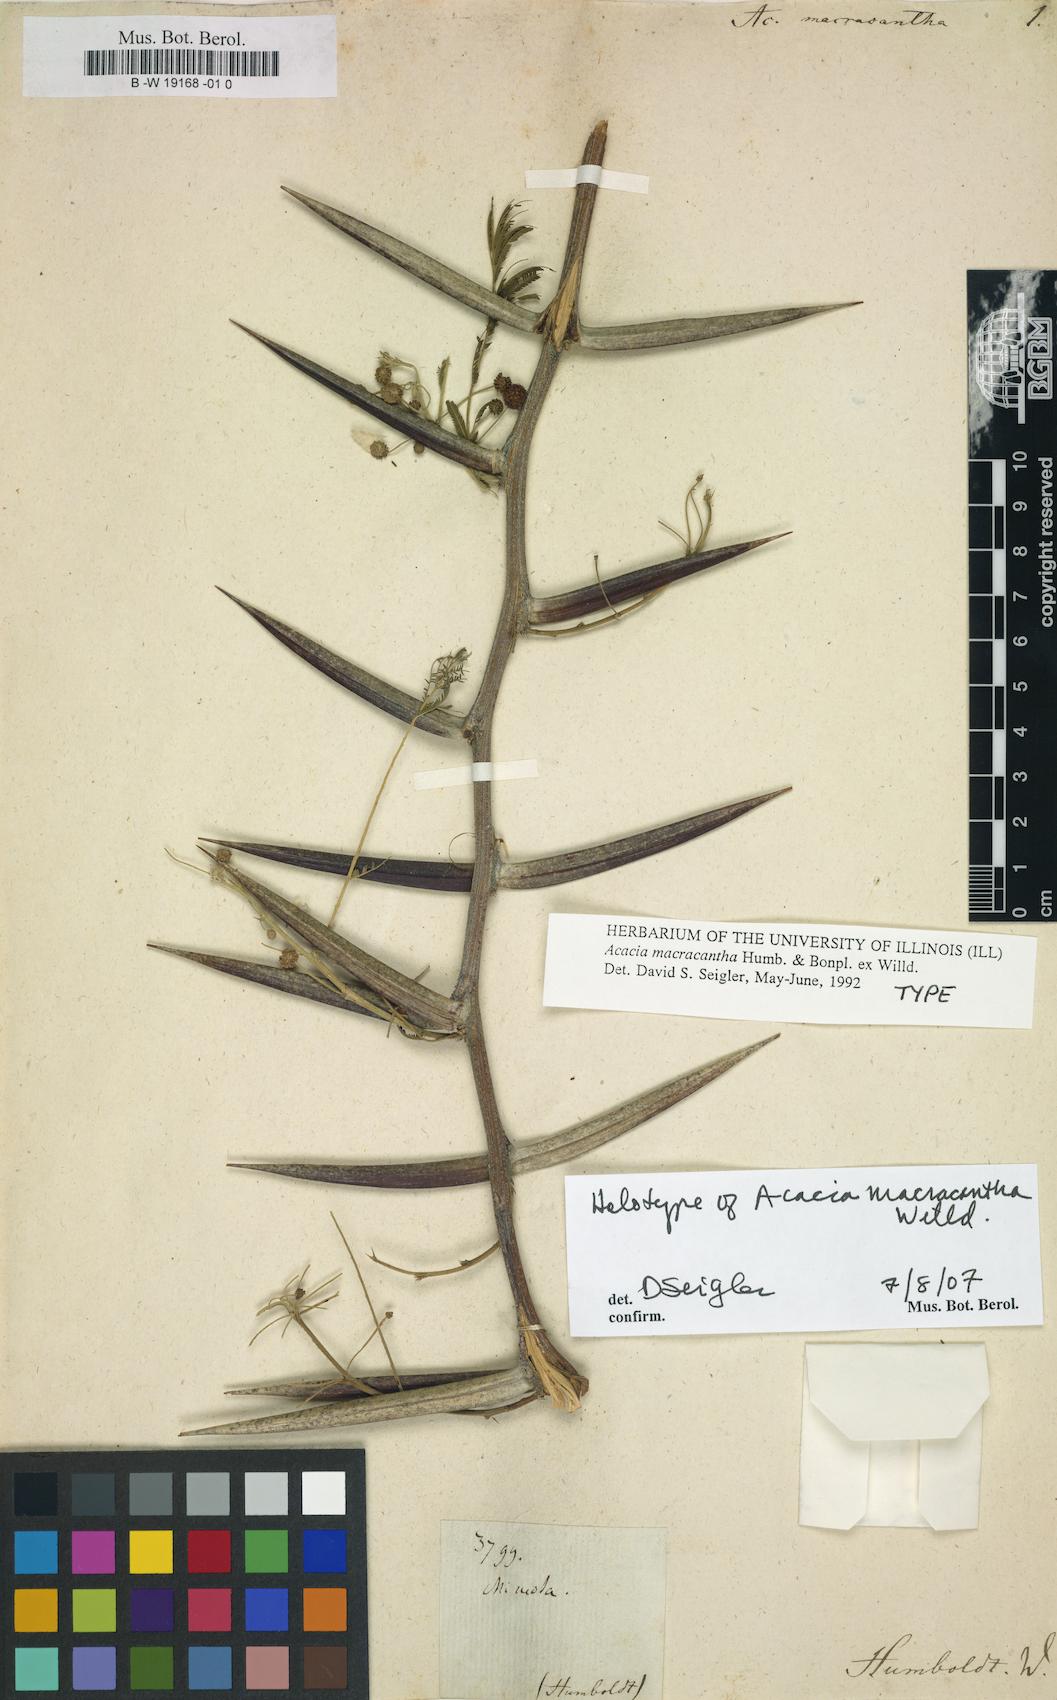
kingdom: Plantae
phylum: Tracheophyta
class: Magnoliopsida
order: Fabales
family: Fabaceae
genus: Vachellia
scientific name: Vachellia macracantha
